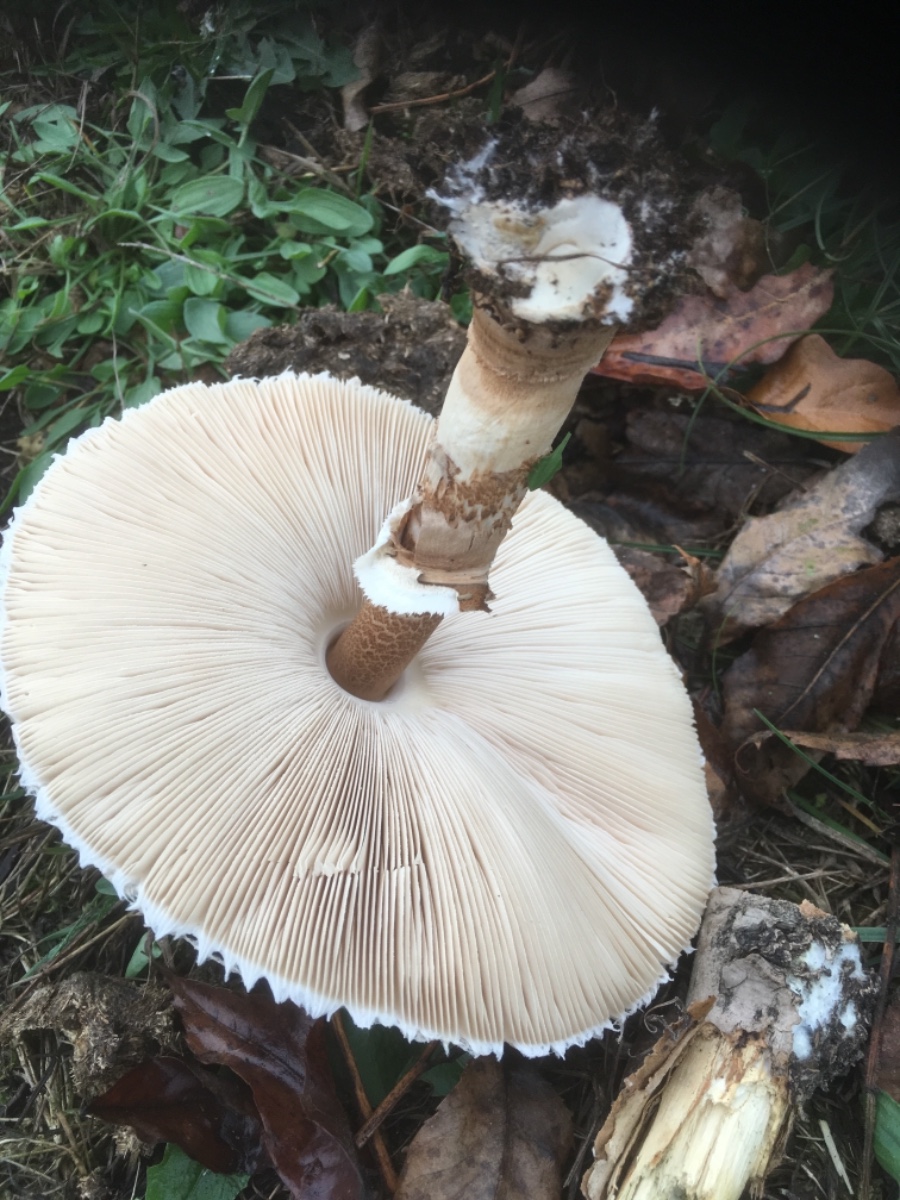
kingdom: Fungi
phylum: Basidiomycota
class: Agaricomycetes
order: Agaricales
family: Agaricaceae
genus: Macrolepiota
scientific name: Macrolepiota procera
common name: stor kæmpeparasolhat
